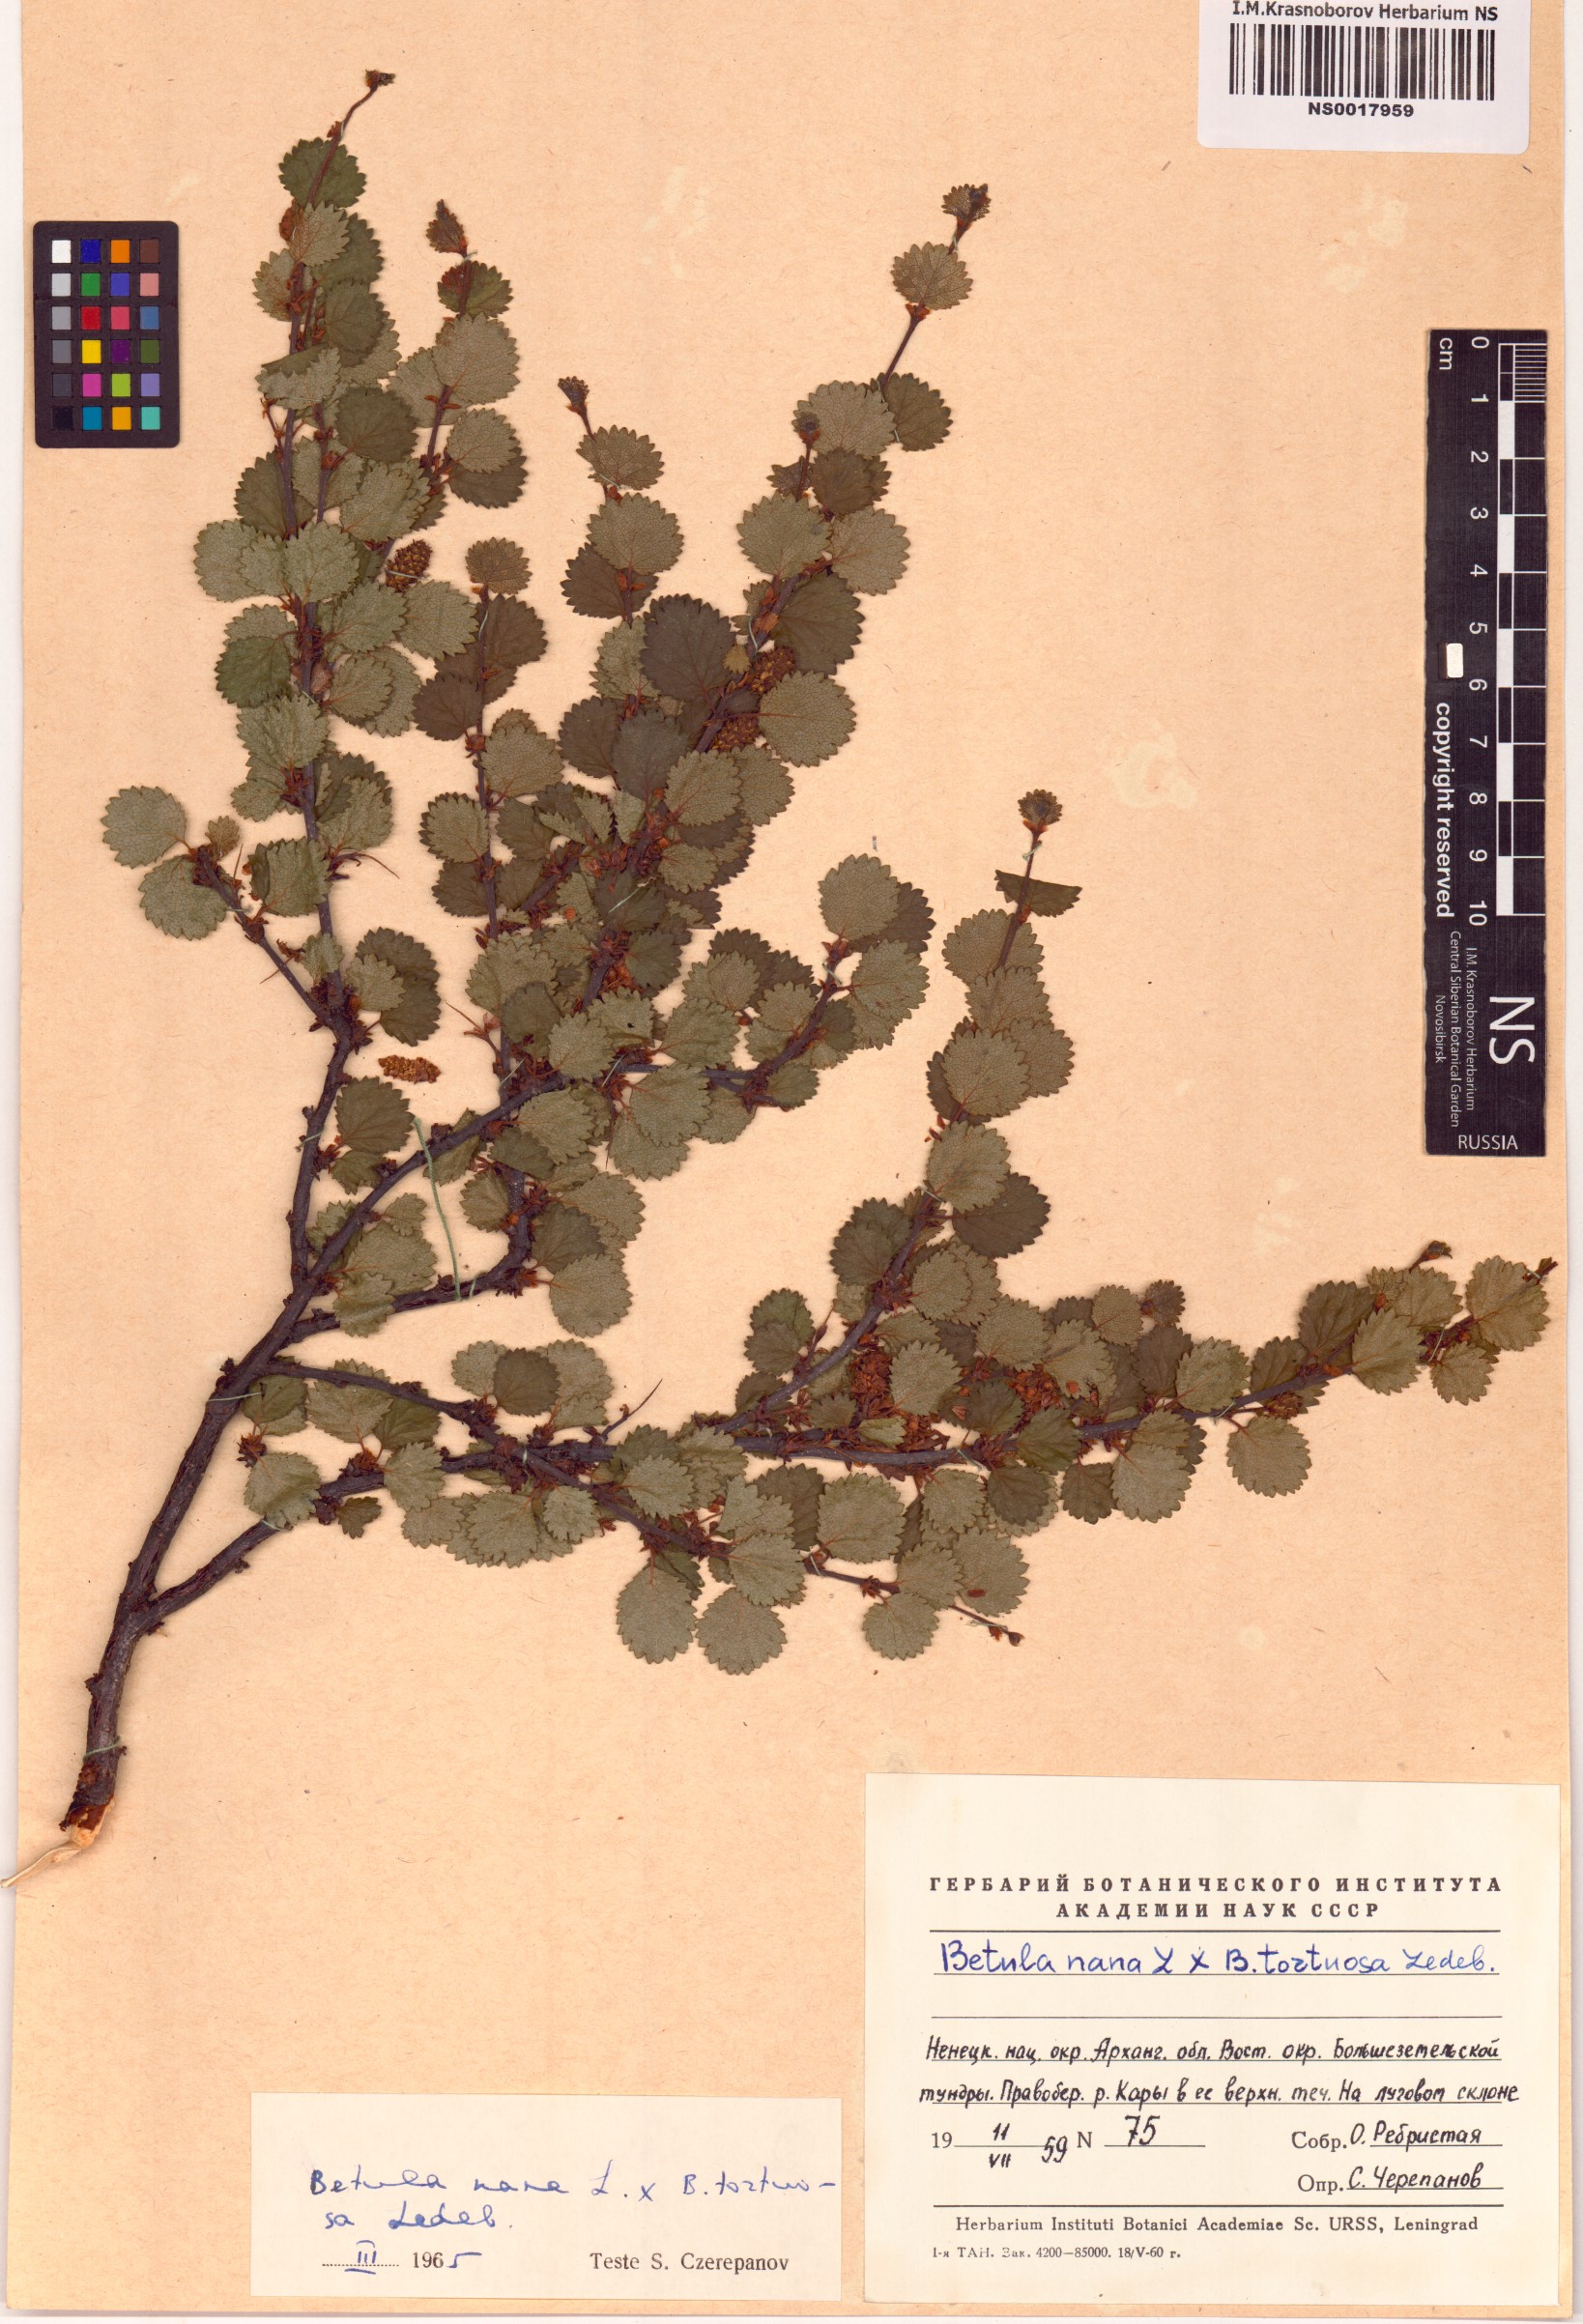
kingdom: Plantae
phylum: Tracheophyta
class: Magnoliopsida
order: Fagales
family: Betulaceae
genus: Betula
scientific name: Betula nana
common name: Arctic dwarf birch
